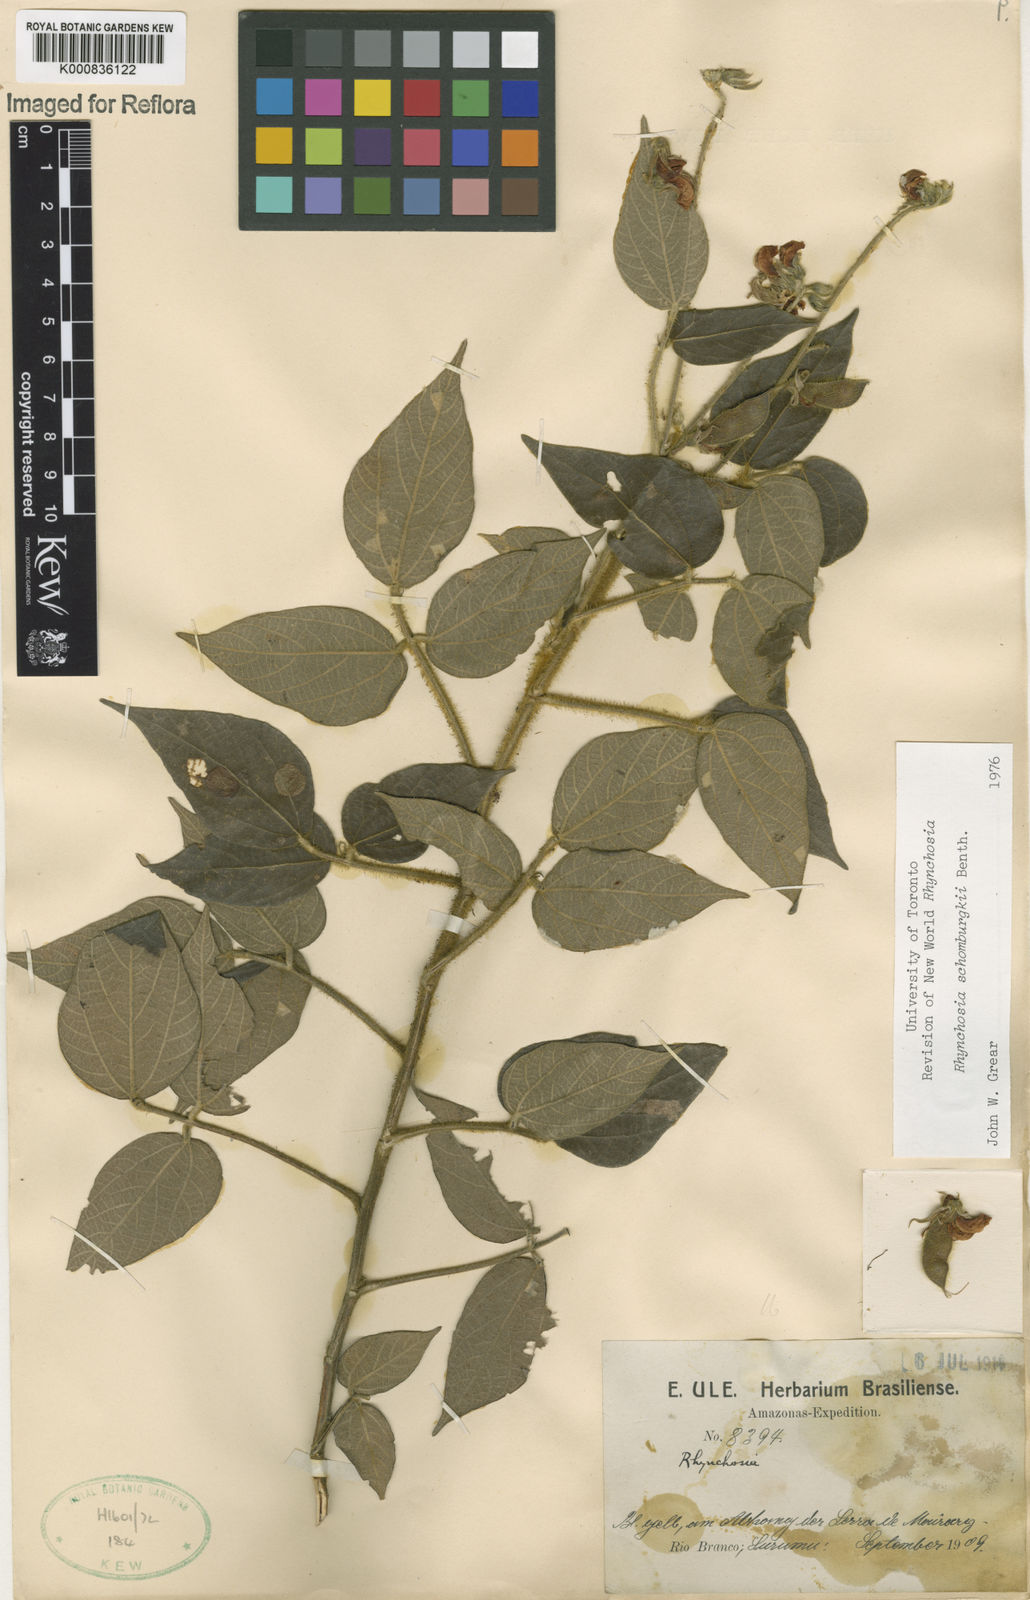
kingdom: Plantae
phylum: Tracheophyta
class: Magnoliopsida
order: Fabales
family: Fabaceae
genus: Rhynchosia
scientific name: Rhynchosia schomburgkii
